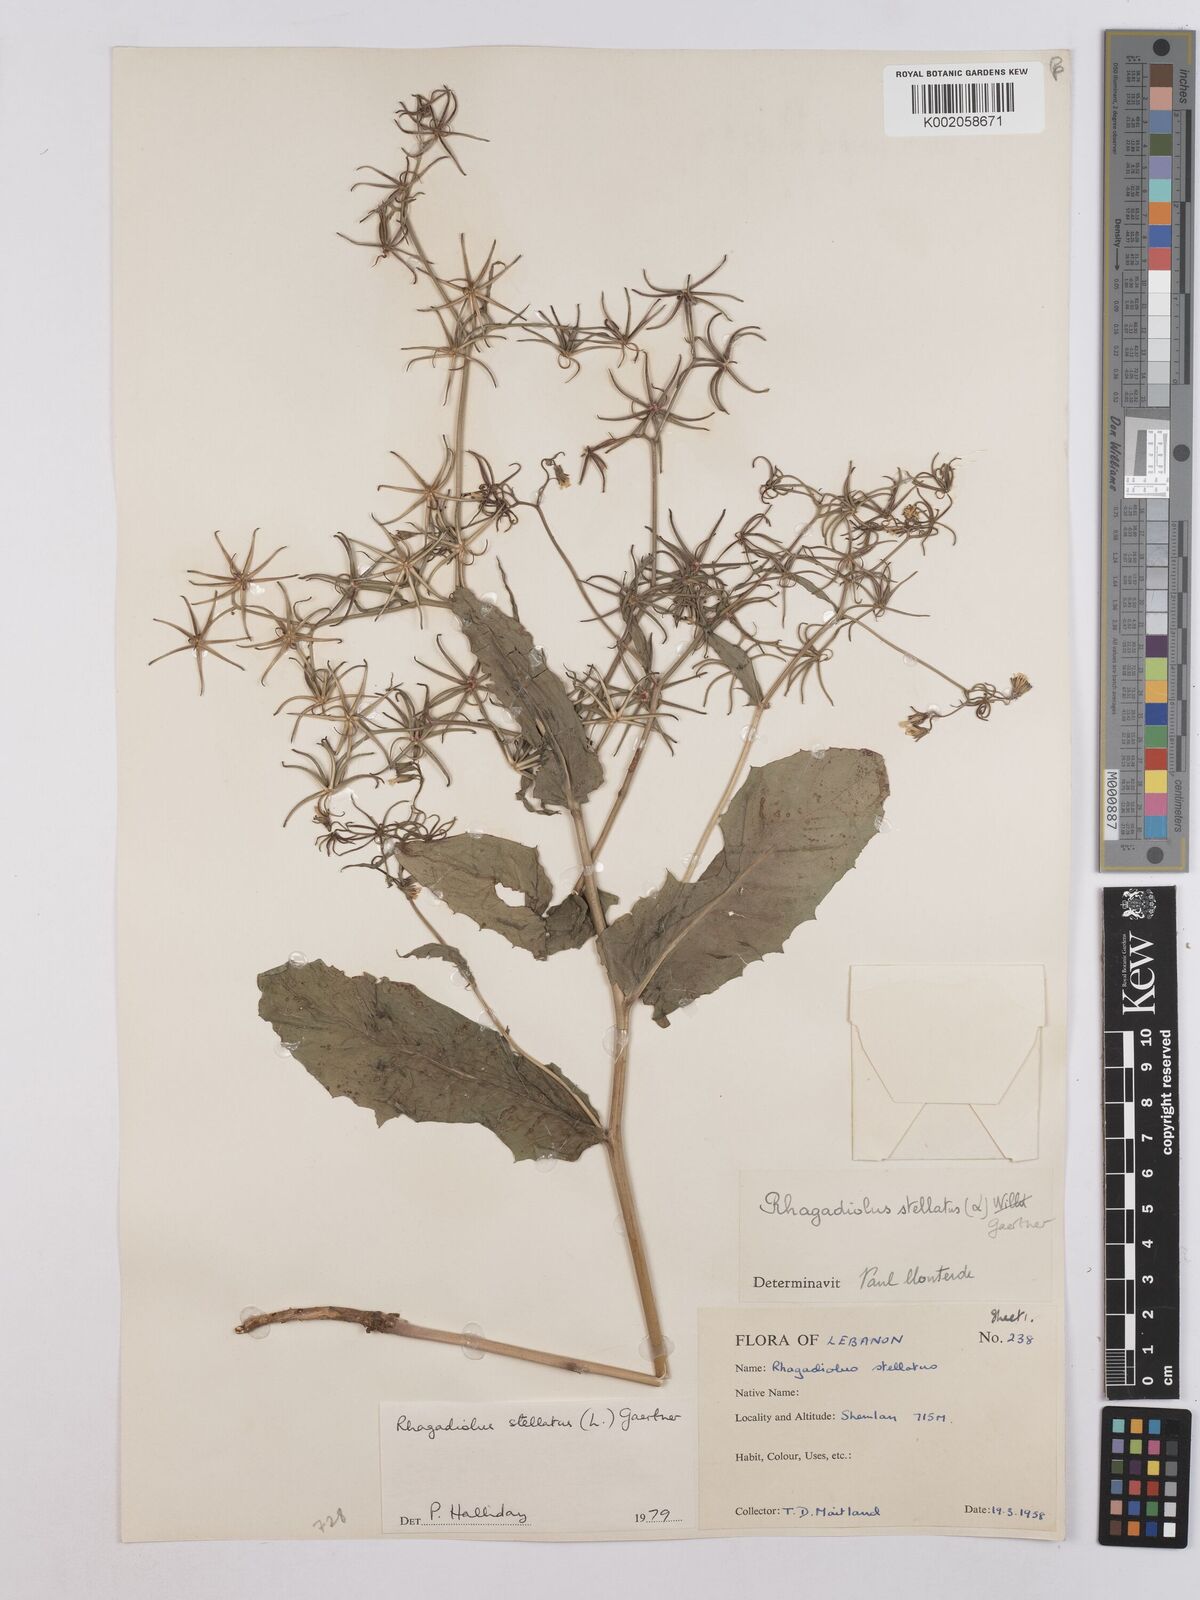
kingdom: Plantae
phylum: Tracheophyta
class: Magnoliopsida
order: Asterales
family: Asteraceae
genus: Rhagadiolus
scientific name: Rhagadiolus stellatus
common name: Star hawkbit
